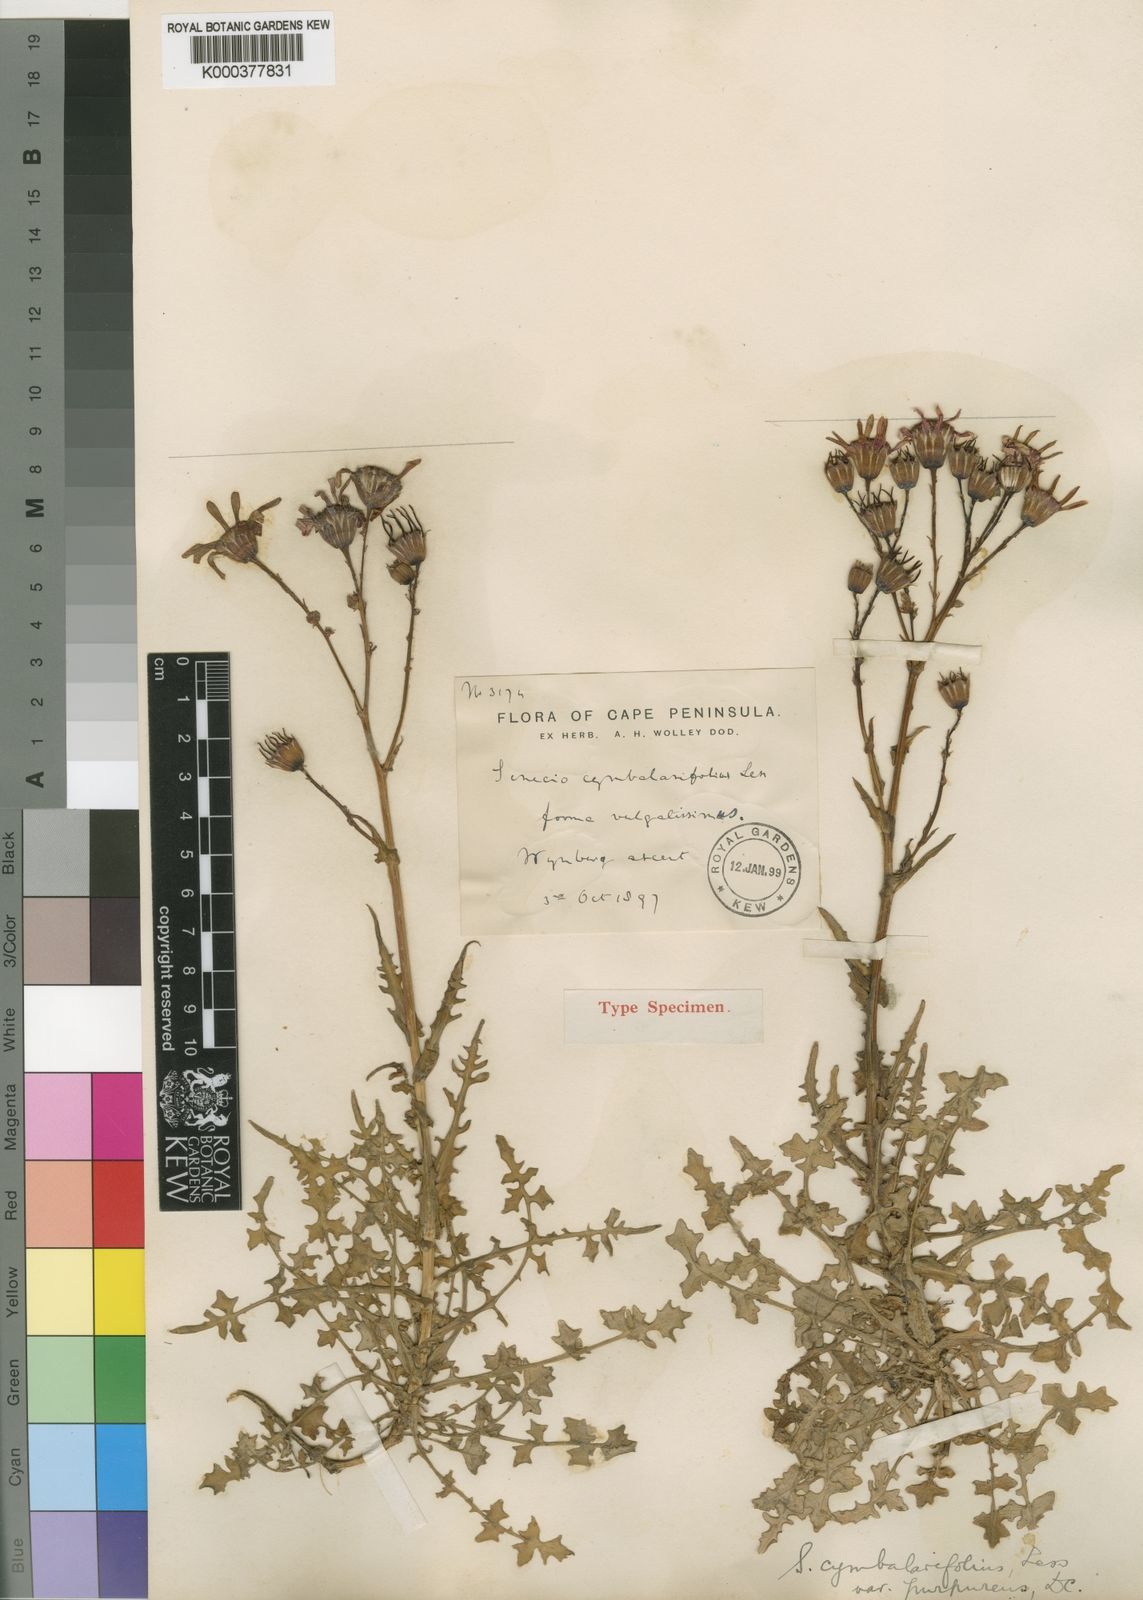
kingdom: Plantae
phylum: Tracheophyta
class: Magnoliopsida
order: Asterales
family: Asteraceae
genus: Senecio
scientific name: Senecio
